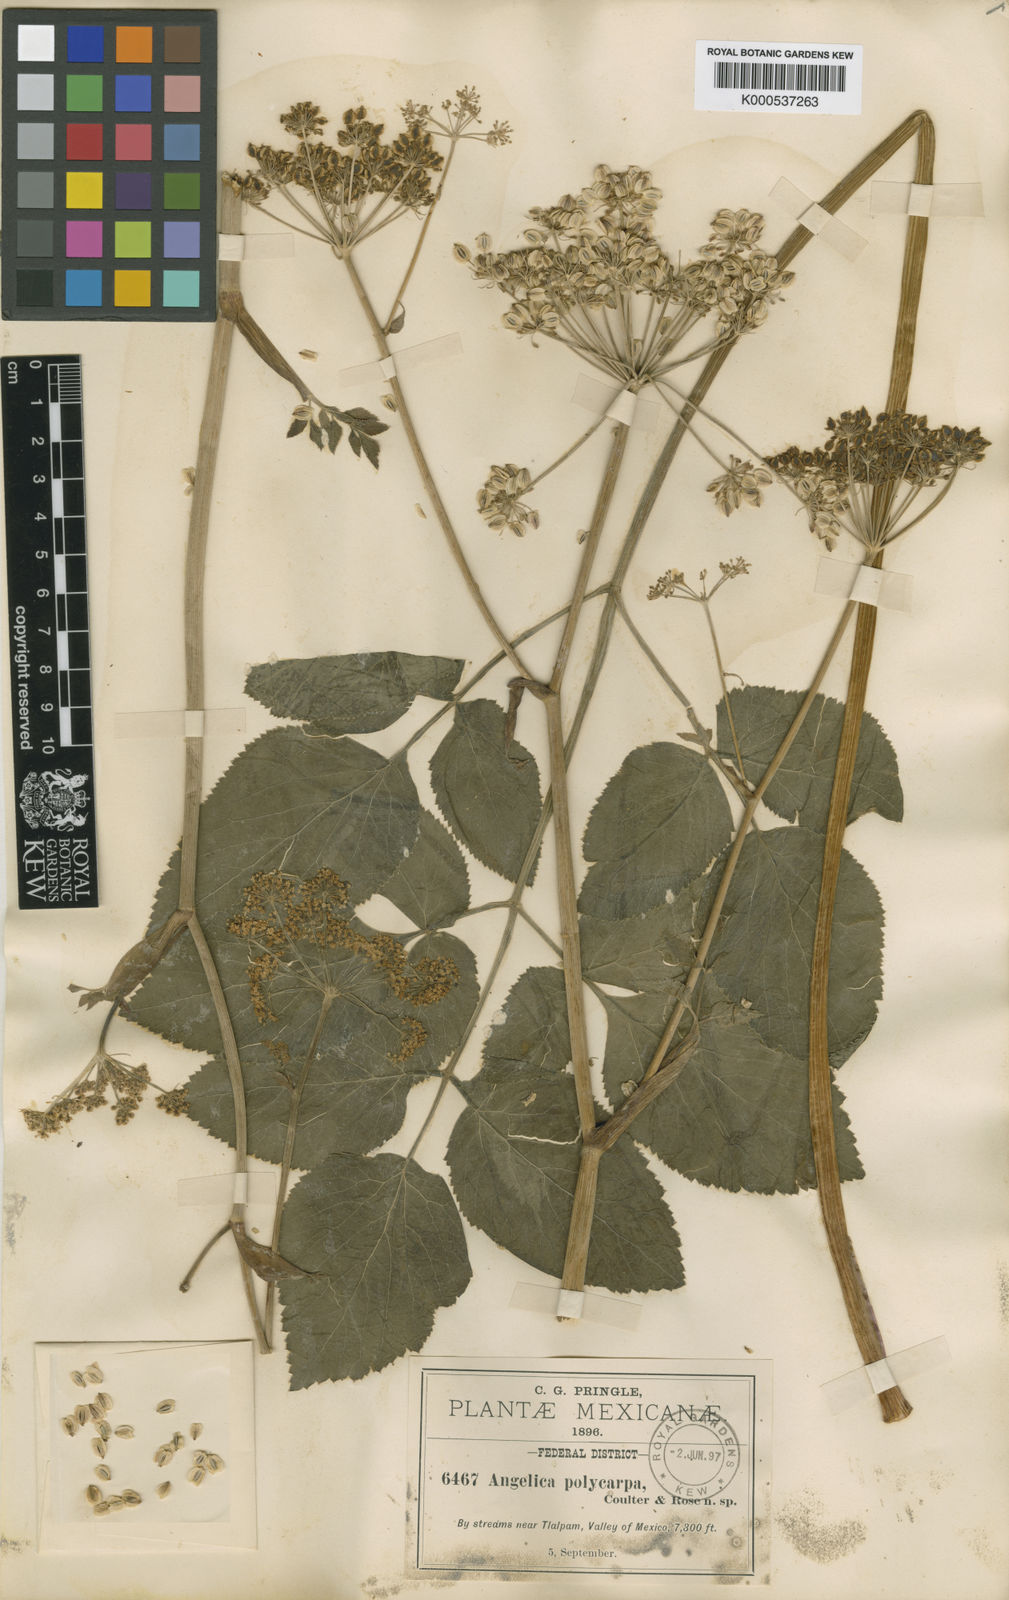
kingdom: Plantae
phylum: Tracheophyta
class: Magnoliopsida
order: Apiales
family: Apiaceae
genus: Angelica
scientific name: Angelica nelsonii
